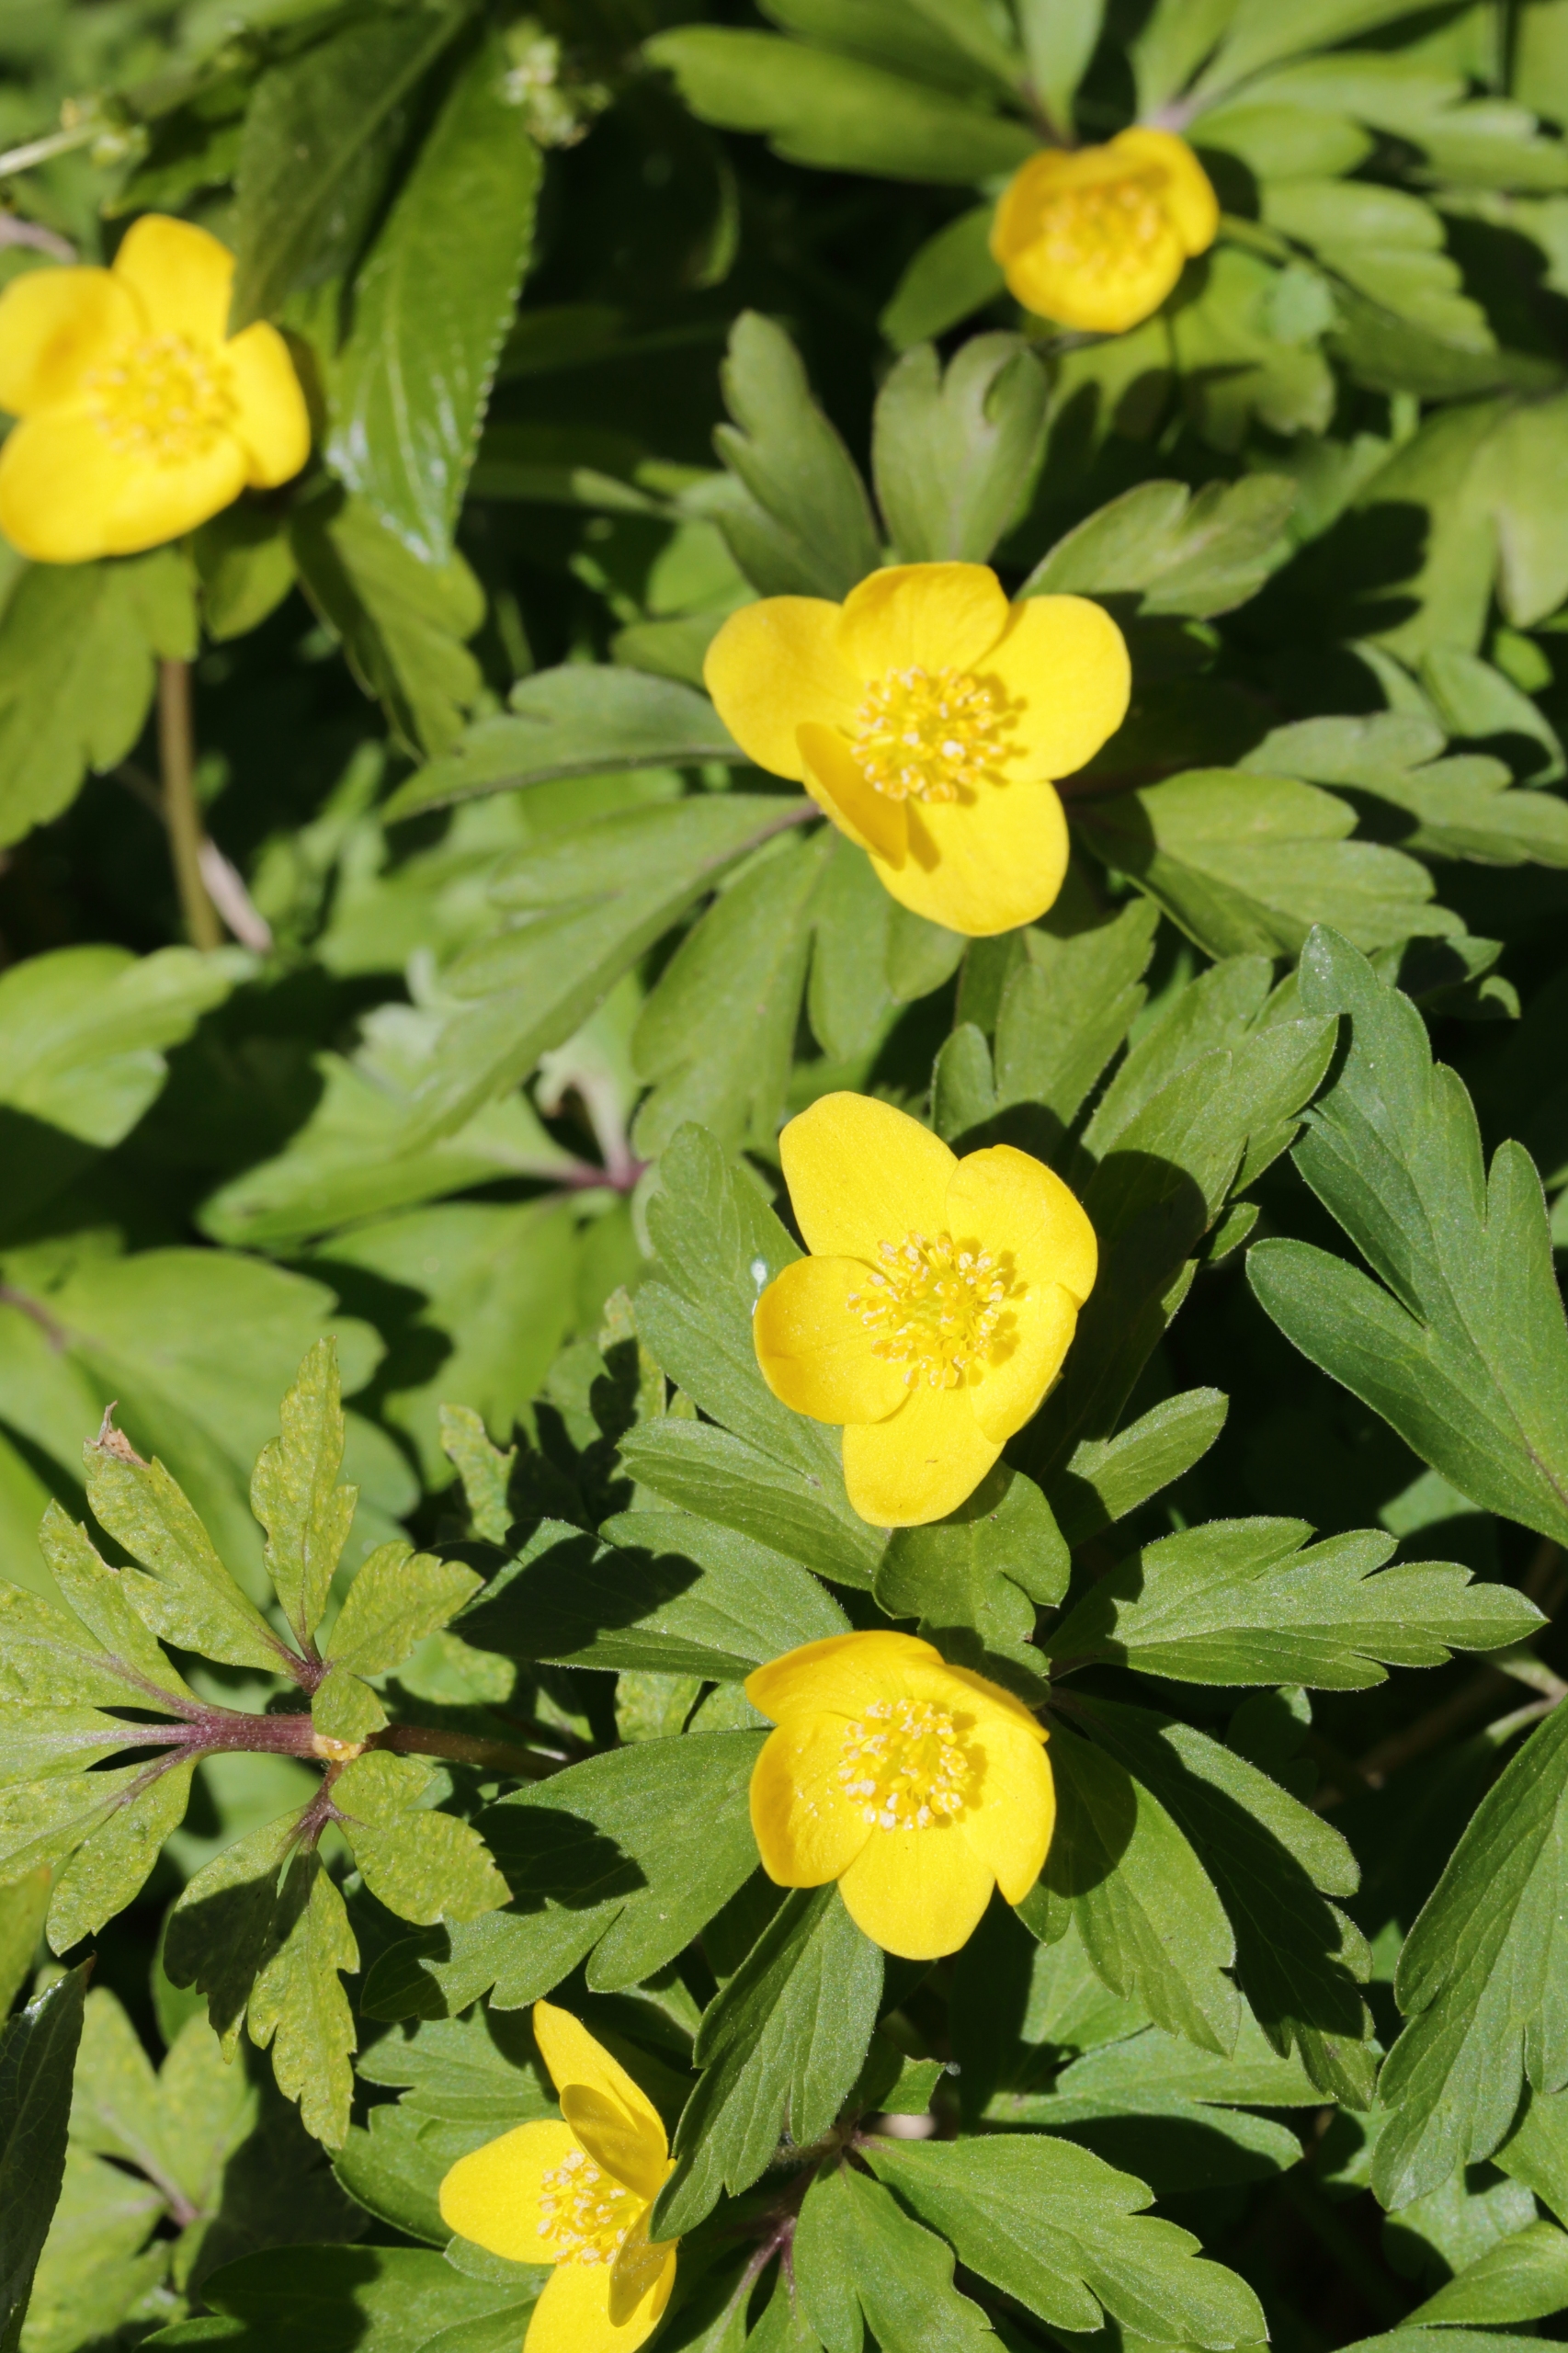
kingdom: Plantae
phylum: Tracheophyta
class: Magnoliopsida
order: Ranunculales
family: Ranunculaceae
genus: Anemone
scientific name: Anemone ranunculoides
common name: Gul anemone
